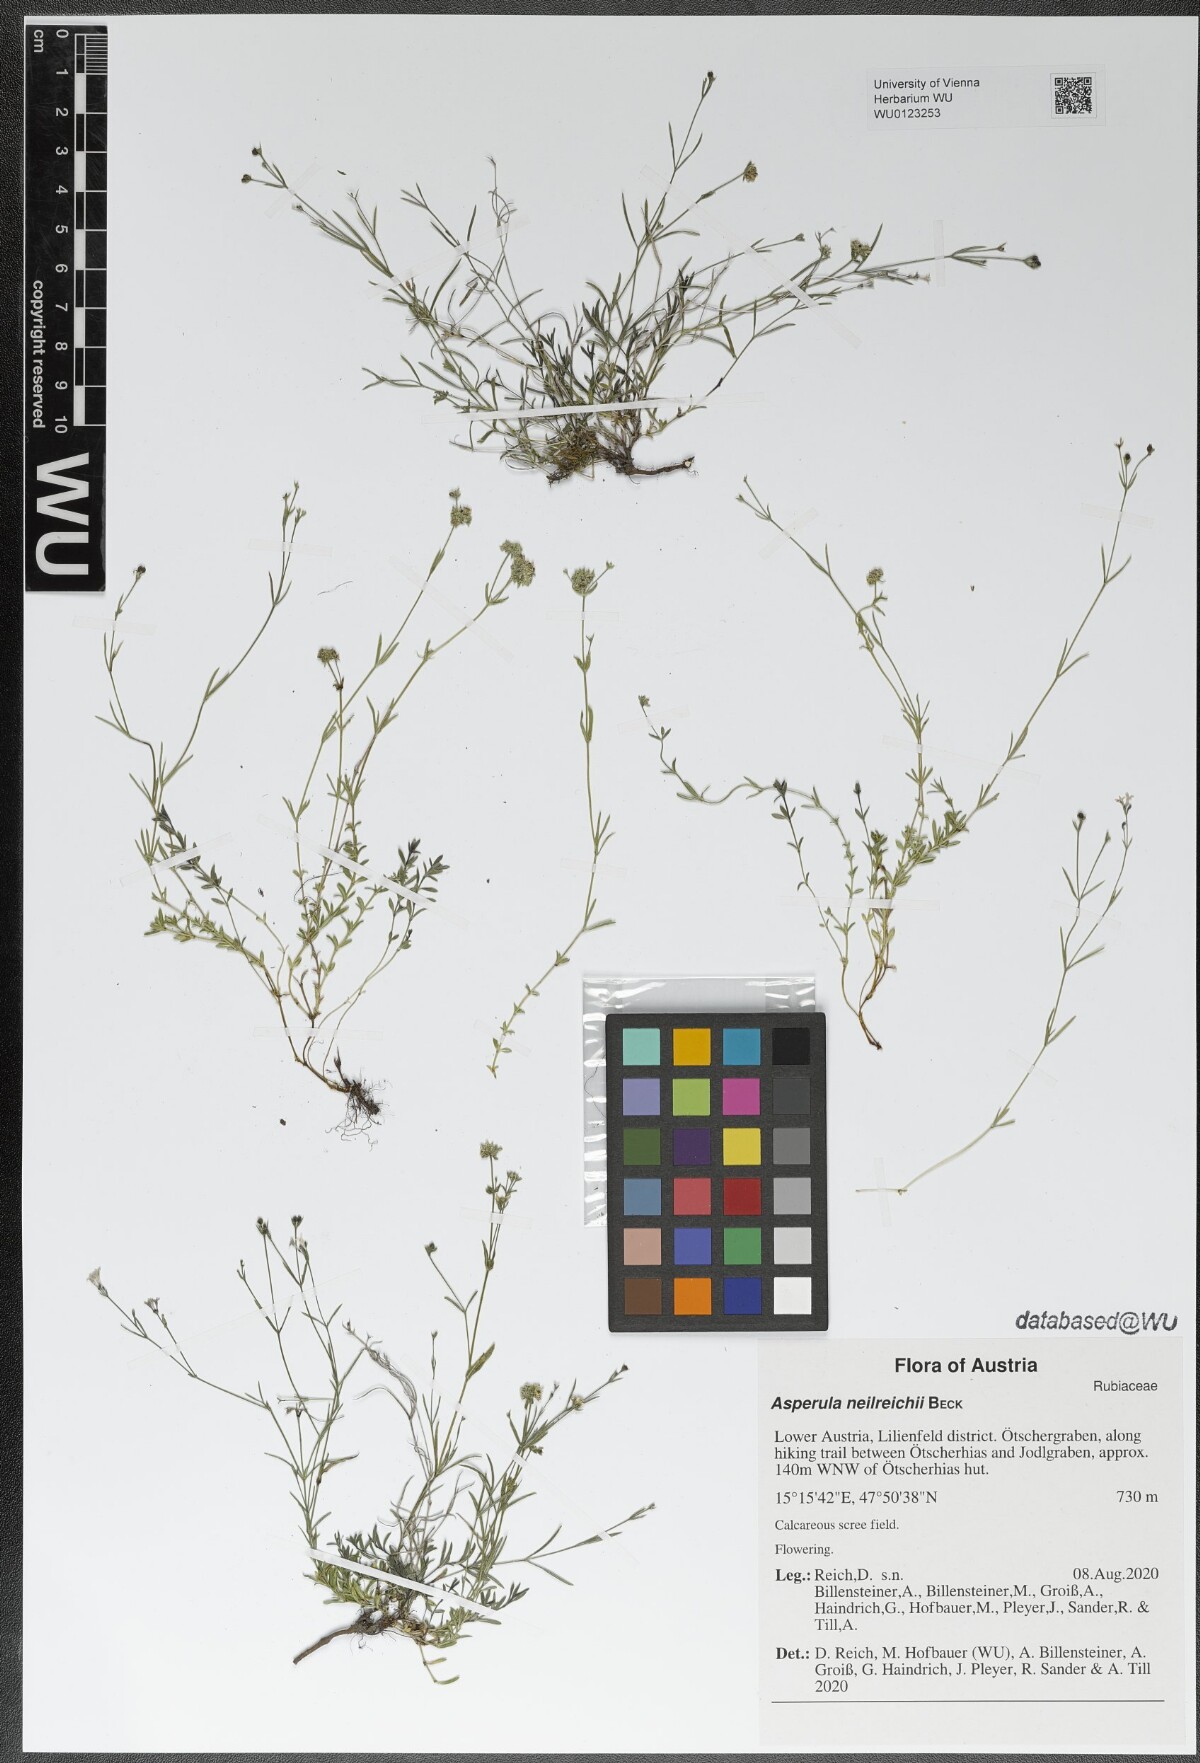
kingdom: Plantae
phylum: Tracheophyta
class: Magnoliopsida
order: Gentianales
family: Rubiaceae
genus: Cynanchica
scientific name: Cynanchica neilreichii
